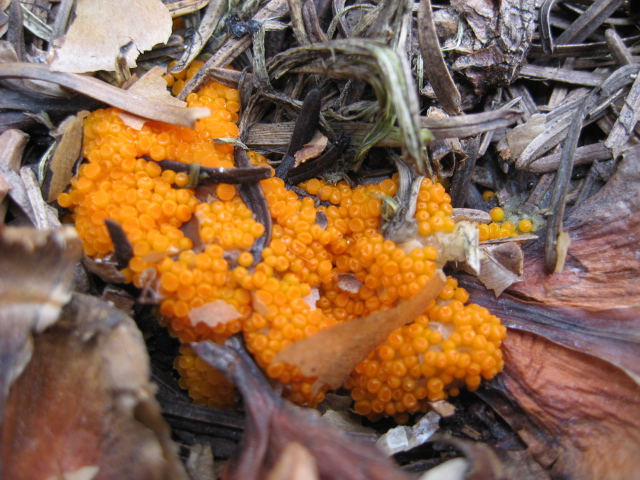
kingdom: Fungi
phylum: Ascomycota
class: Pezizomycetes
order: Pezizales
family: Pyronemataceae
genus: Byssonectria
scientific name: Byssonectria terrestris
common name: hjortebæger
